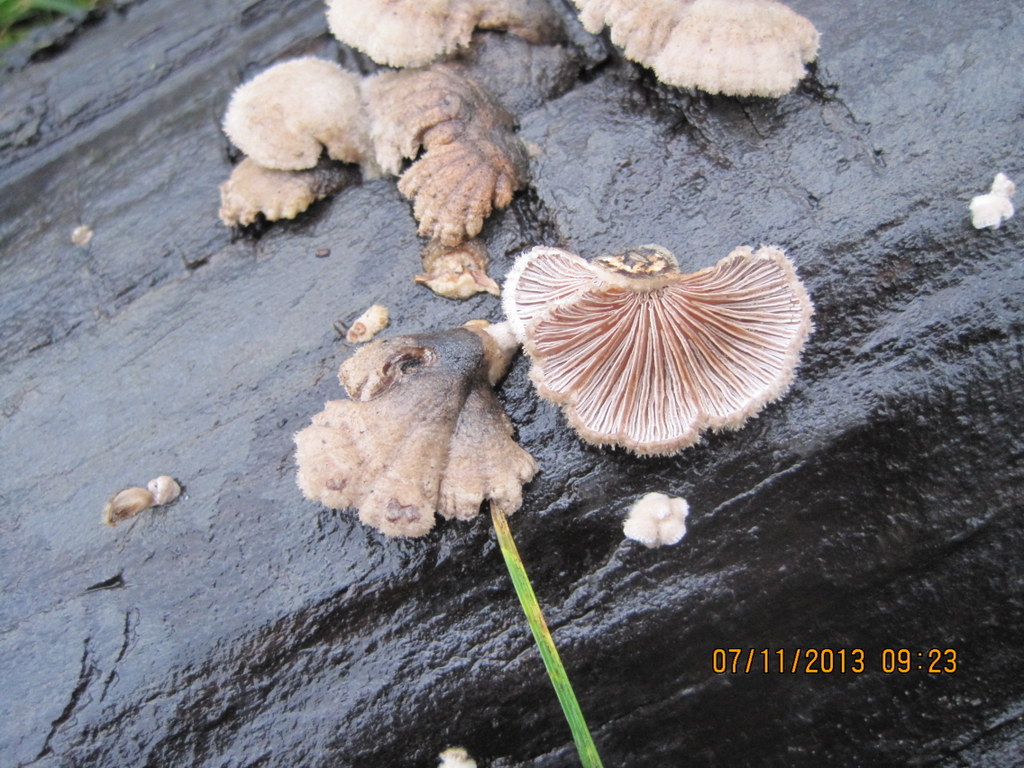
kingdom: Fungi
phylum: Basidiomycota
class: Agaricomycetes
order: Agaricales
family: Schizophyllaceae
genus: Schizophyllum
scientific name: Schizophyllum commune
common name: kløvblad
